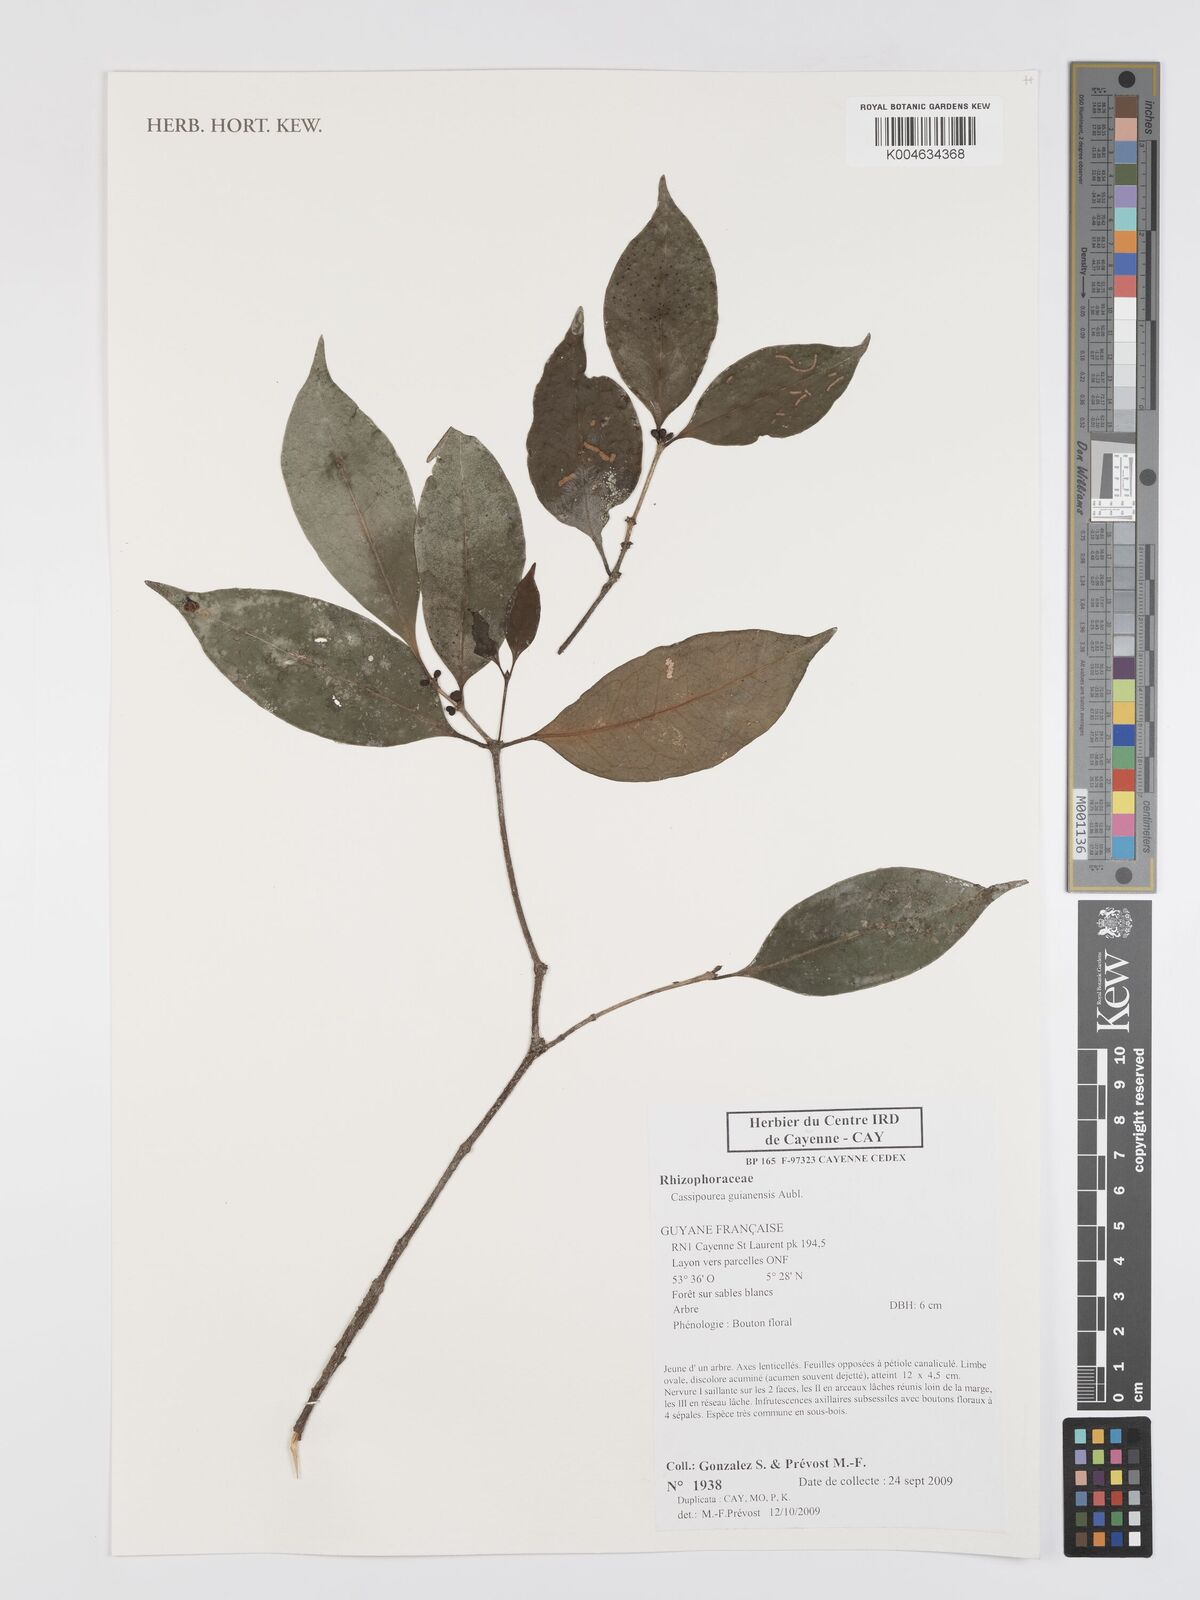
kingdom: Plantae
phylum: Tracheophyta
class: Magnoliopsida
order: Malpighiales
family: Rhizophoraceae
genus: Cassipourea
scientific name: Cassipourea guianensis
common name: Bastard waterwood
